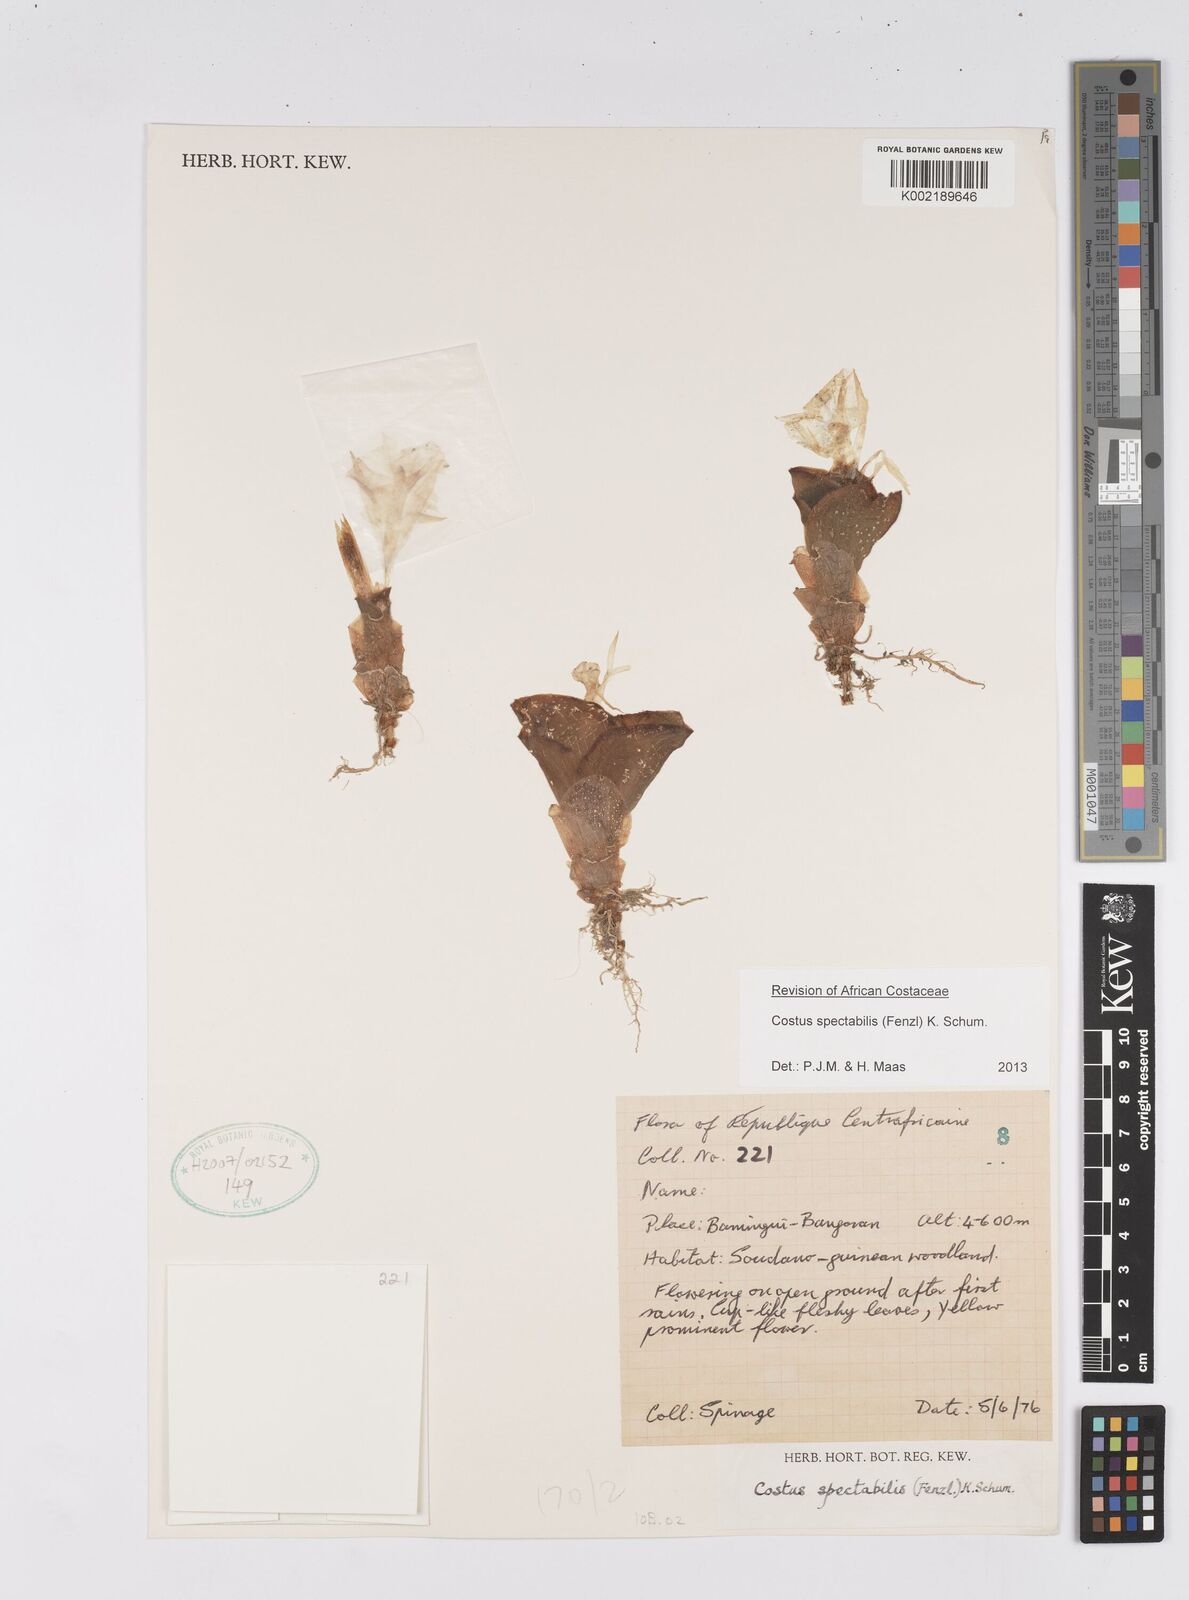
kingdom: Plantae
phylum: Tracheophyta
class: Liliopsida
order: Zingiberales
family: Costaceae
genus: Costus
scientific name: Costus spectabilis
